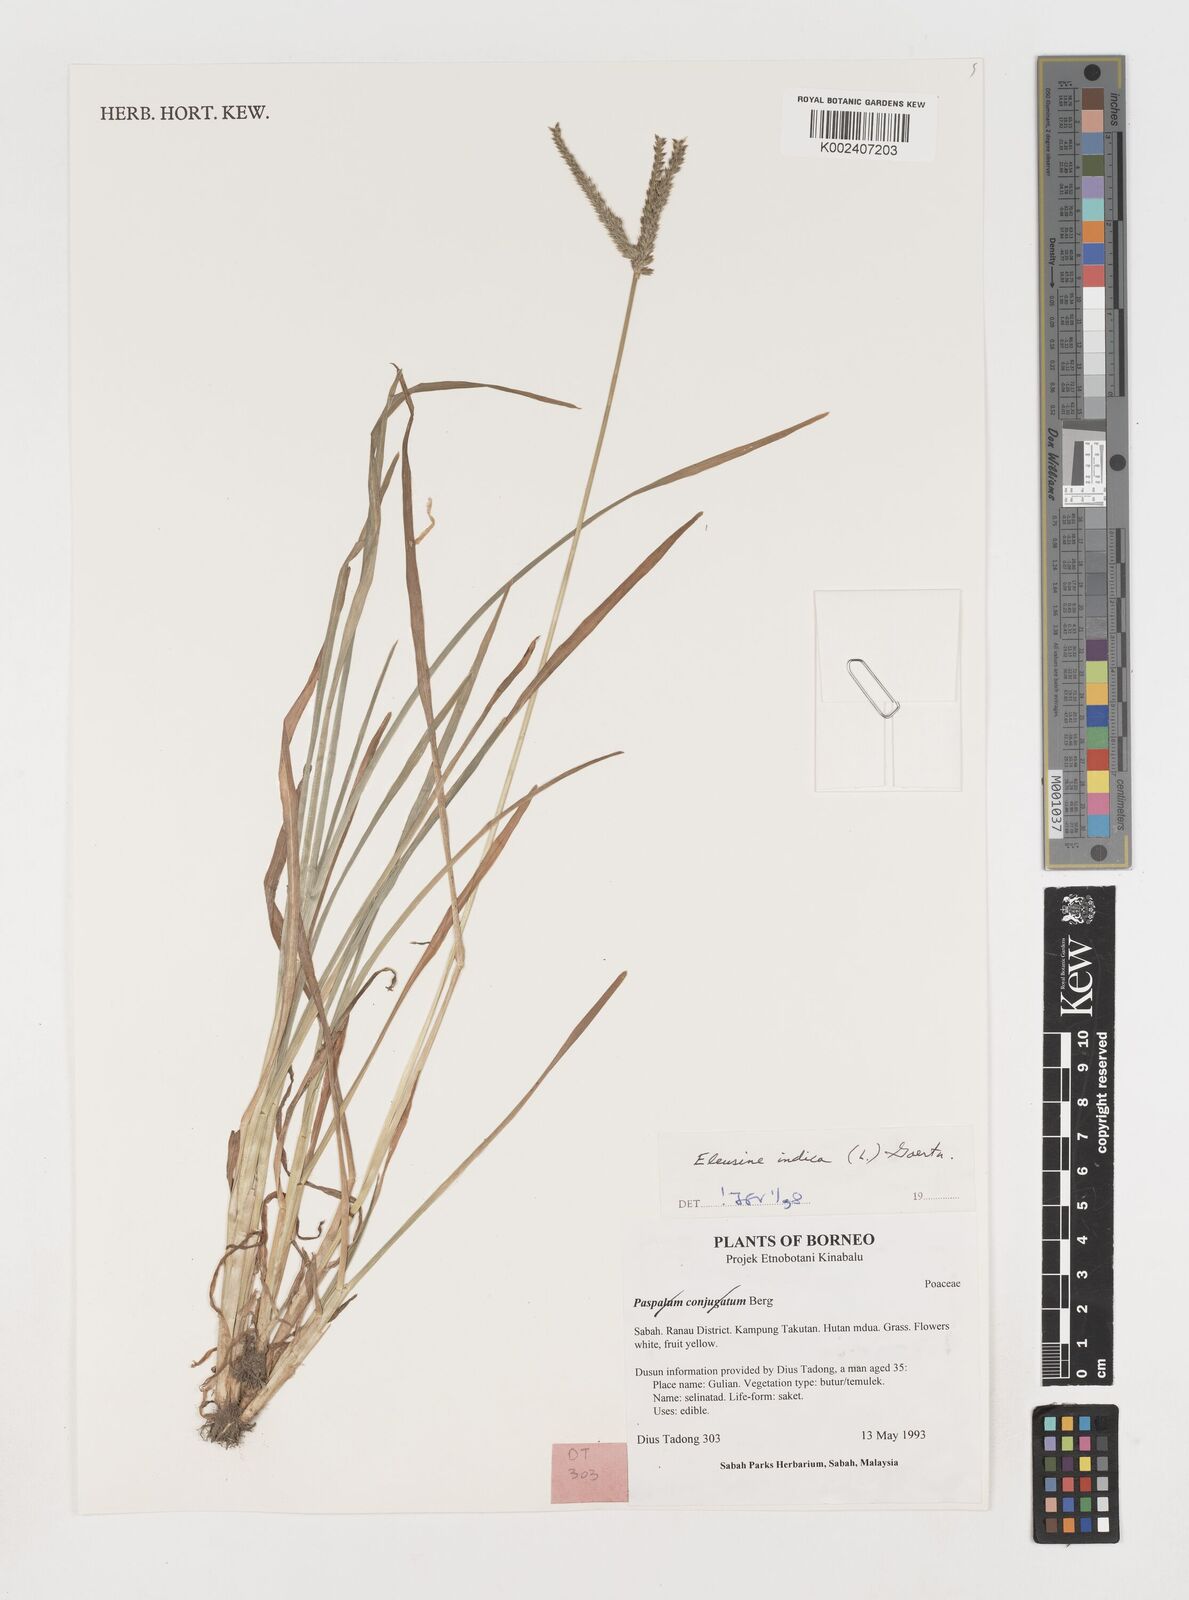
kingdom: Plantae
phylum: Tracheophyta
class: Liliopsida
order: Poales
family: Poaceae
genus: Eleusine
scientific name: Eleusine indica
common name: Yard-grass
